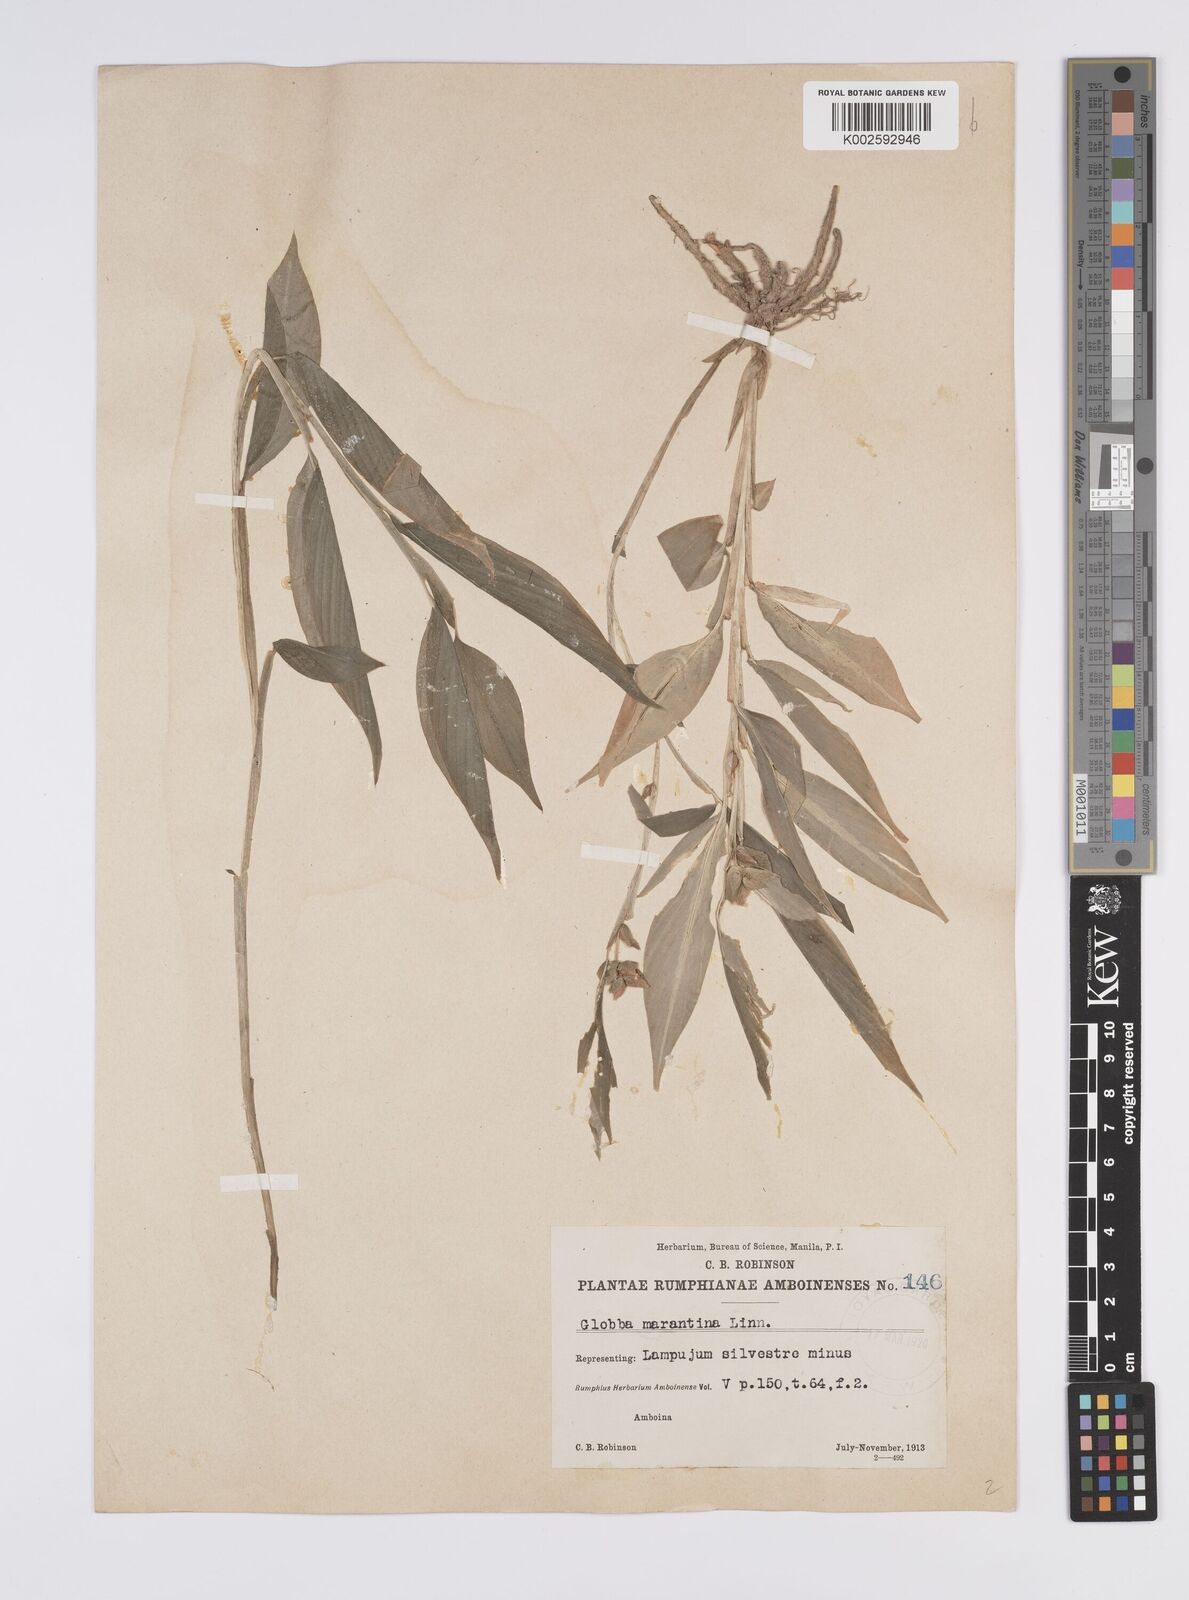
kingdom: Plantae
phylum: Tracheophyta
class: Liliopsida
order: Zingiberales
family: Zingiberaceae
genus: Globba
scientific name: Globba marantina
